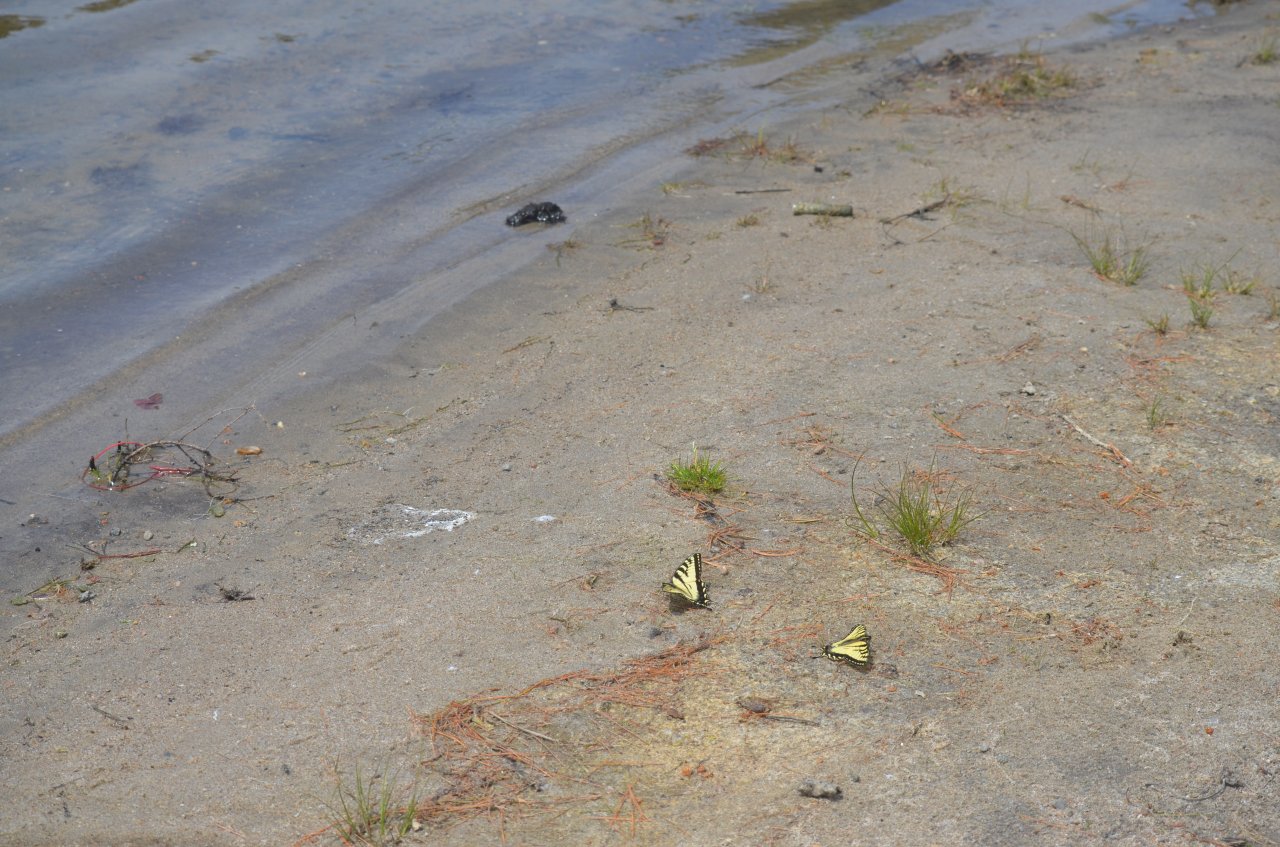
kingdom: Animalia
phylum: Arthropoda
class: Insecta
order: Lepidoptera
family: Papilionidae
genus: Pterourus
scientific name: Pterourus canadensis
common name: Canadian Tiger Swallowtail
